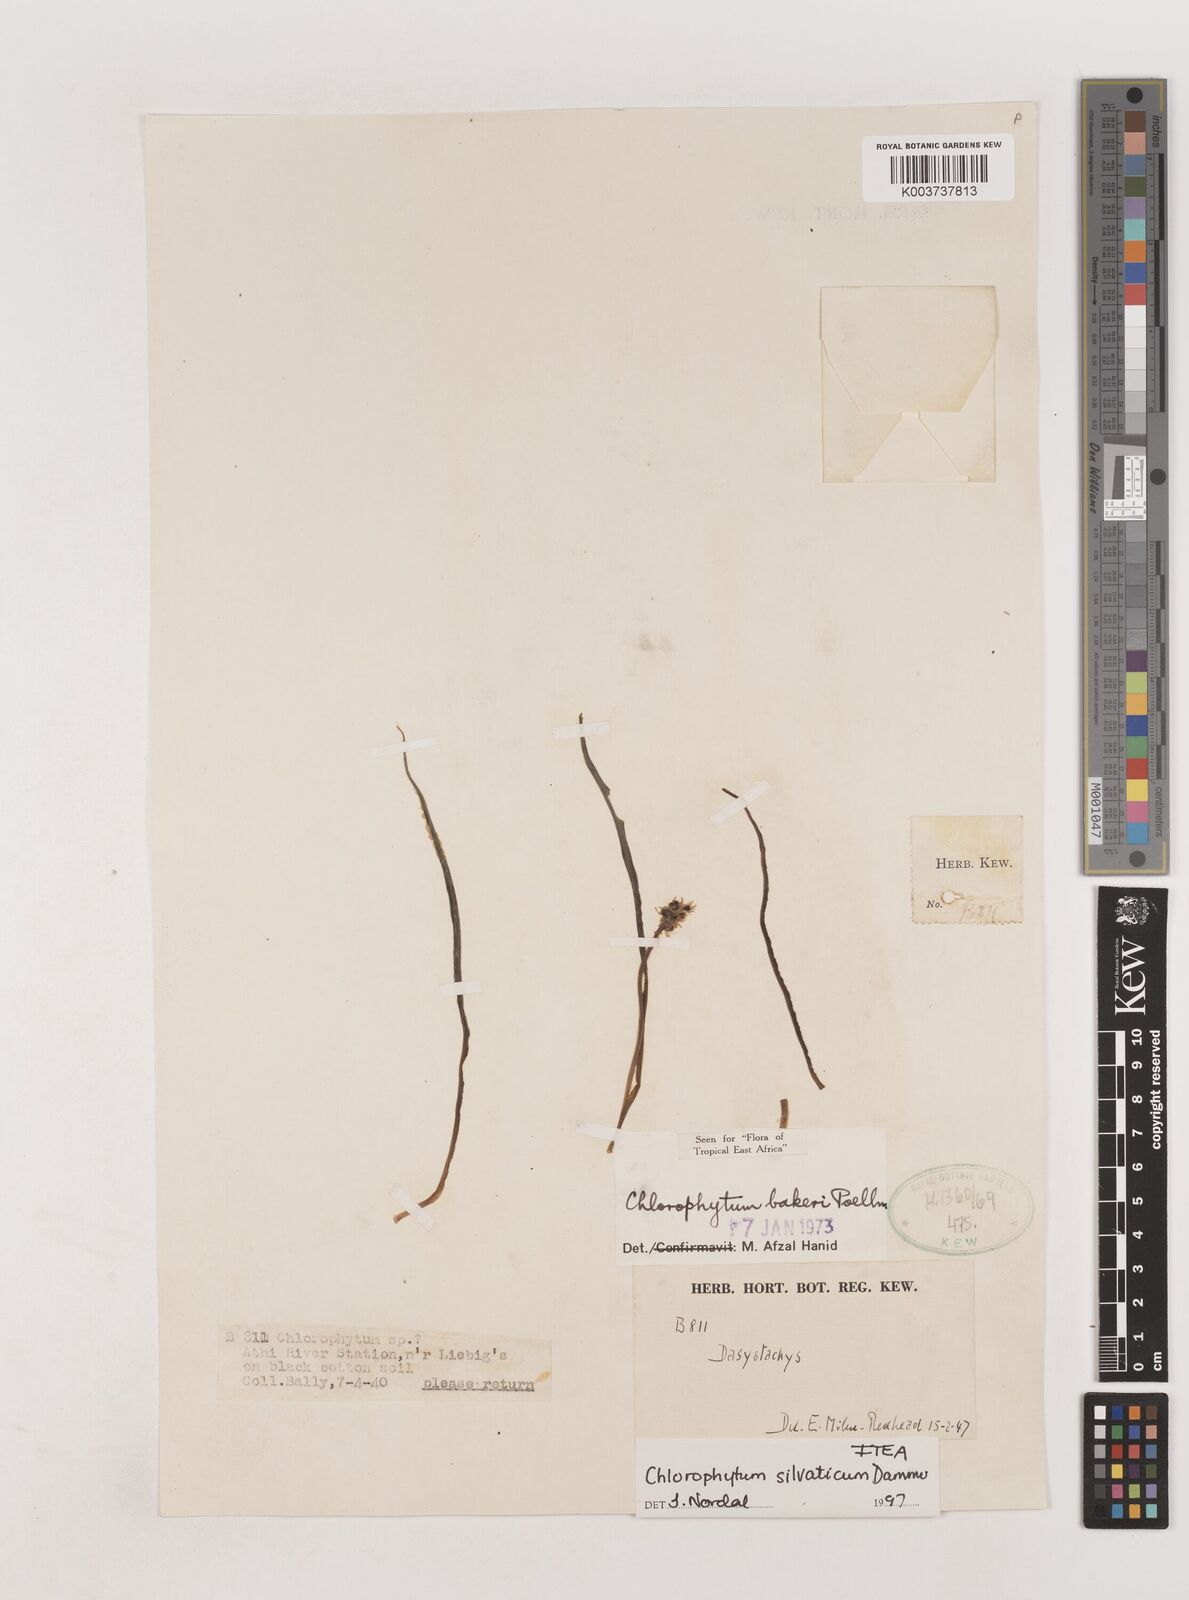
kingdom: Plantae
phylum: Tracheophyta
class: Liliopsida
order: Asparagales
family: Asparagaceae
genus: Chlorophytum
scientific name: Chlorophytum africanum
